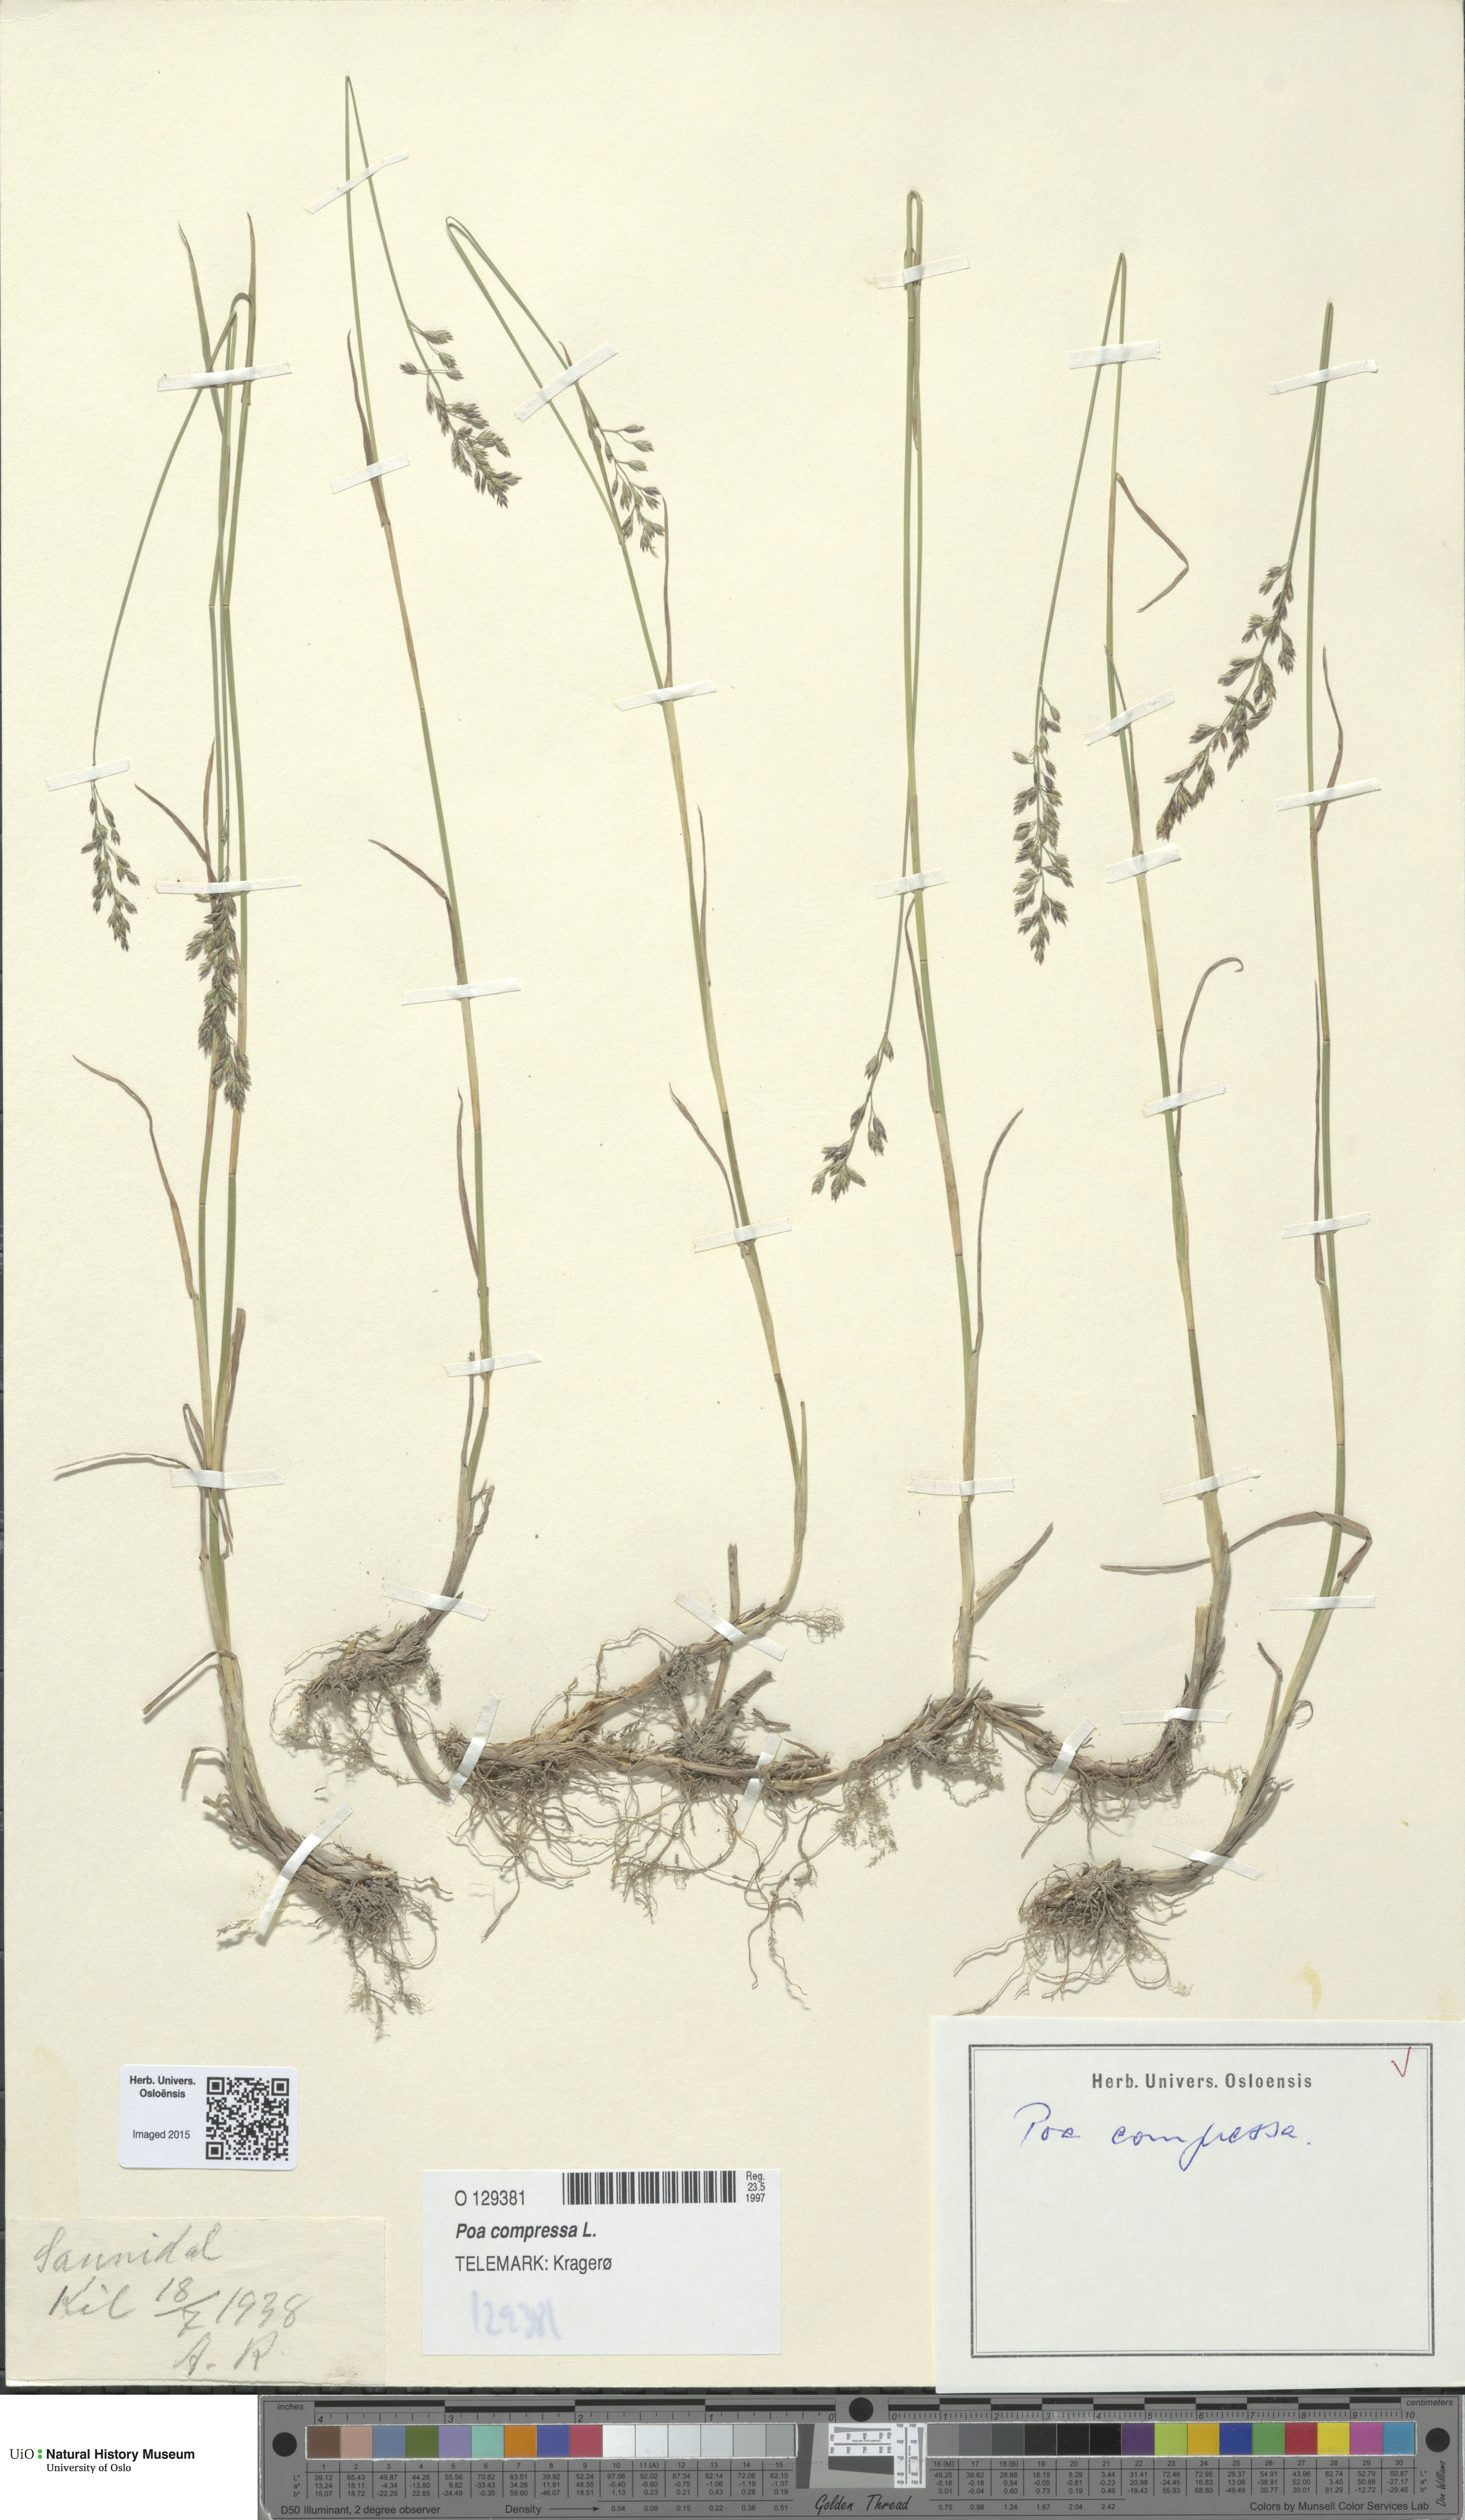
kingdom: Plantae
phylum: Tracheophyta
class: Liliopsida
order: Poales
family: Poaceae
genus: Poa
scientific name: Poa compressa
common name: Canada bluegrass
